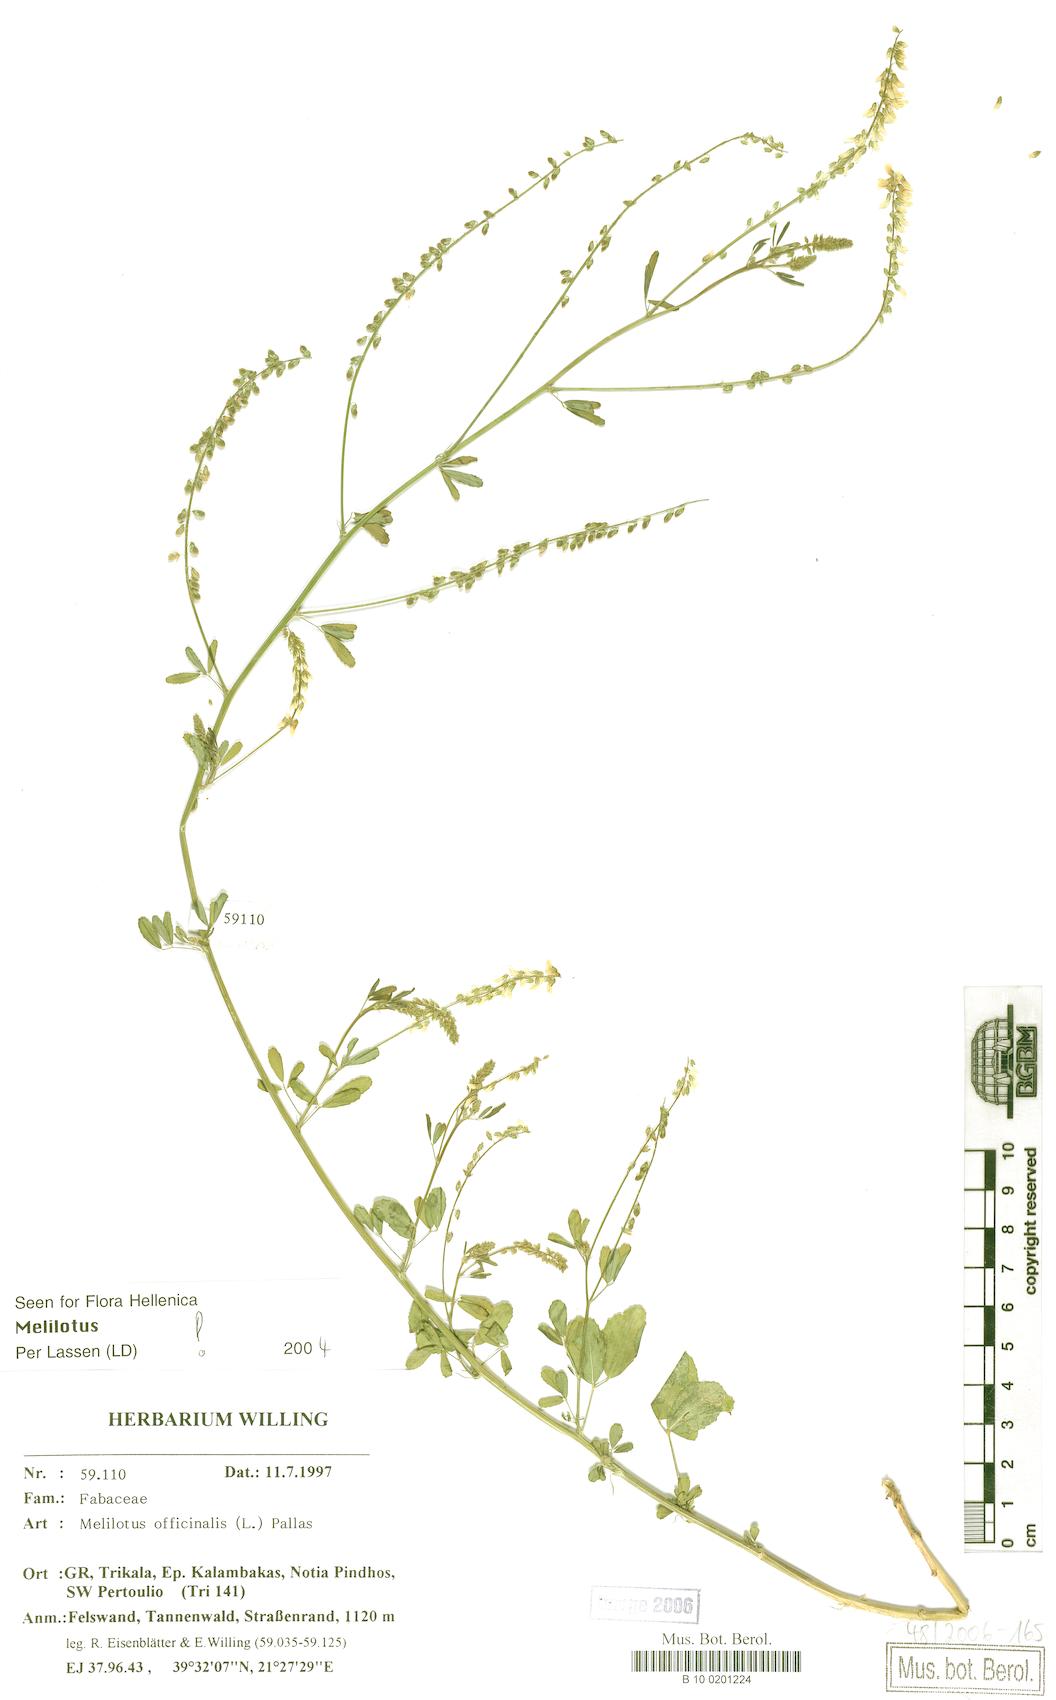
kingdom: Plantae
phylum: Tracheophyta
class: Magnoliopsida
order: Fabales
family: Fabaceae
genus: Melilotus
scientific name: Melilotus officinalis
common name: Sweetclover
